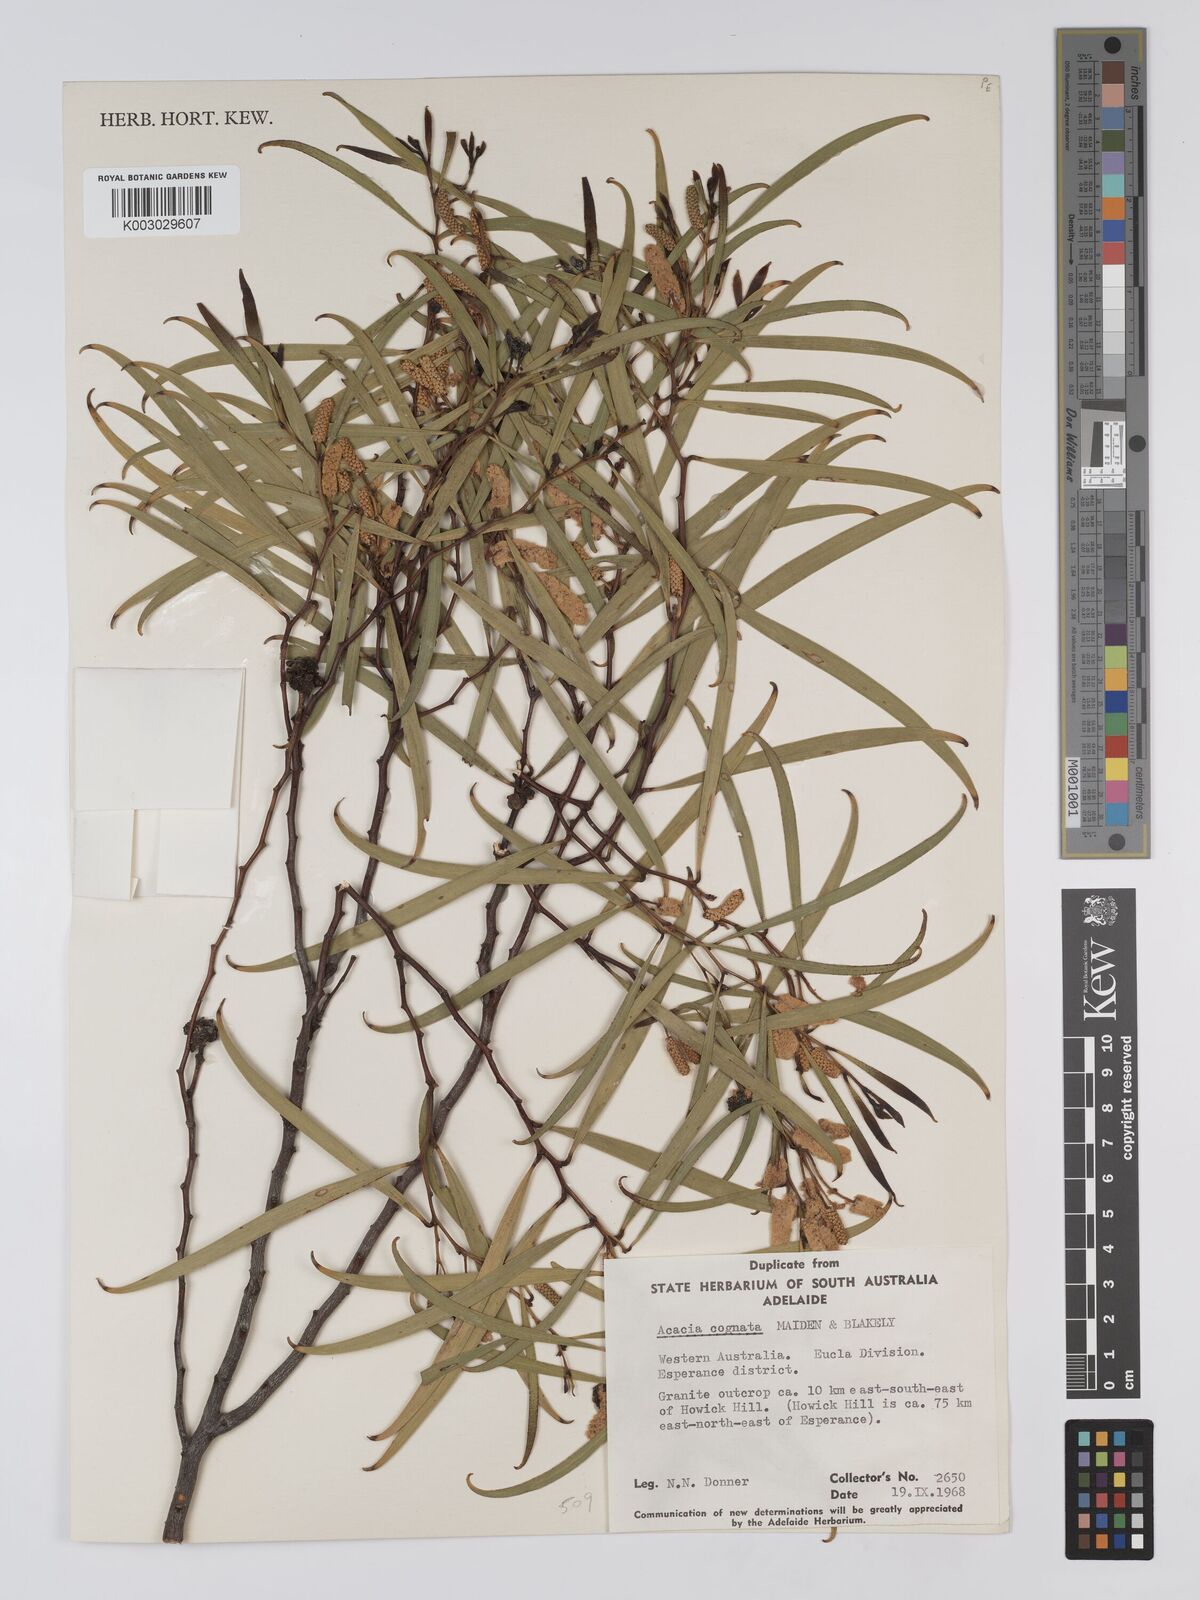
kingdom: Plantae
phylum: Tracheophyta
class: Magnoliopsida
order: Fabales
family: Fabaceae
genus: Acacia
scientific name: Acacia conniana
